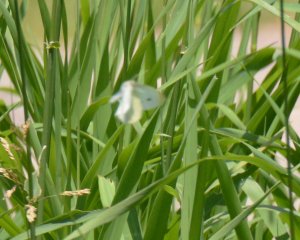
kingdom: Animalia
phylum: Arthropoda
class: Insecta
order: Lepidoptera
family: Pieridae
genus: Pieris
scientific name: Pieris rapae
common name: Cabbage White
